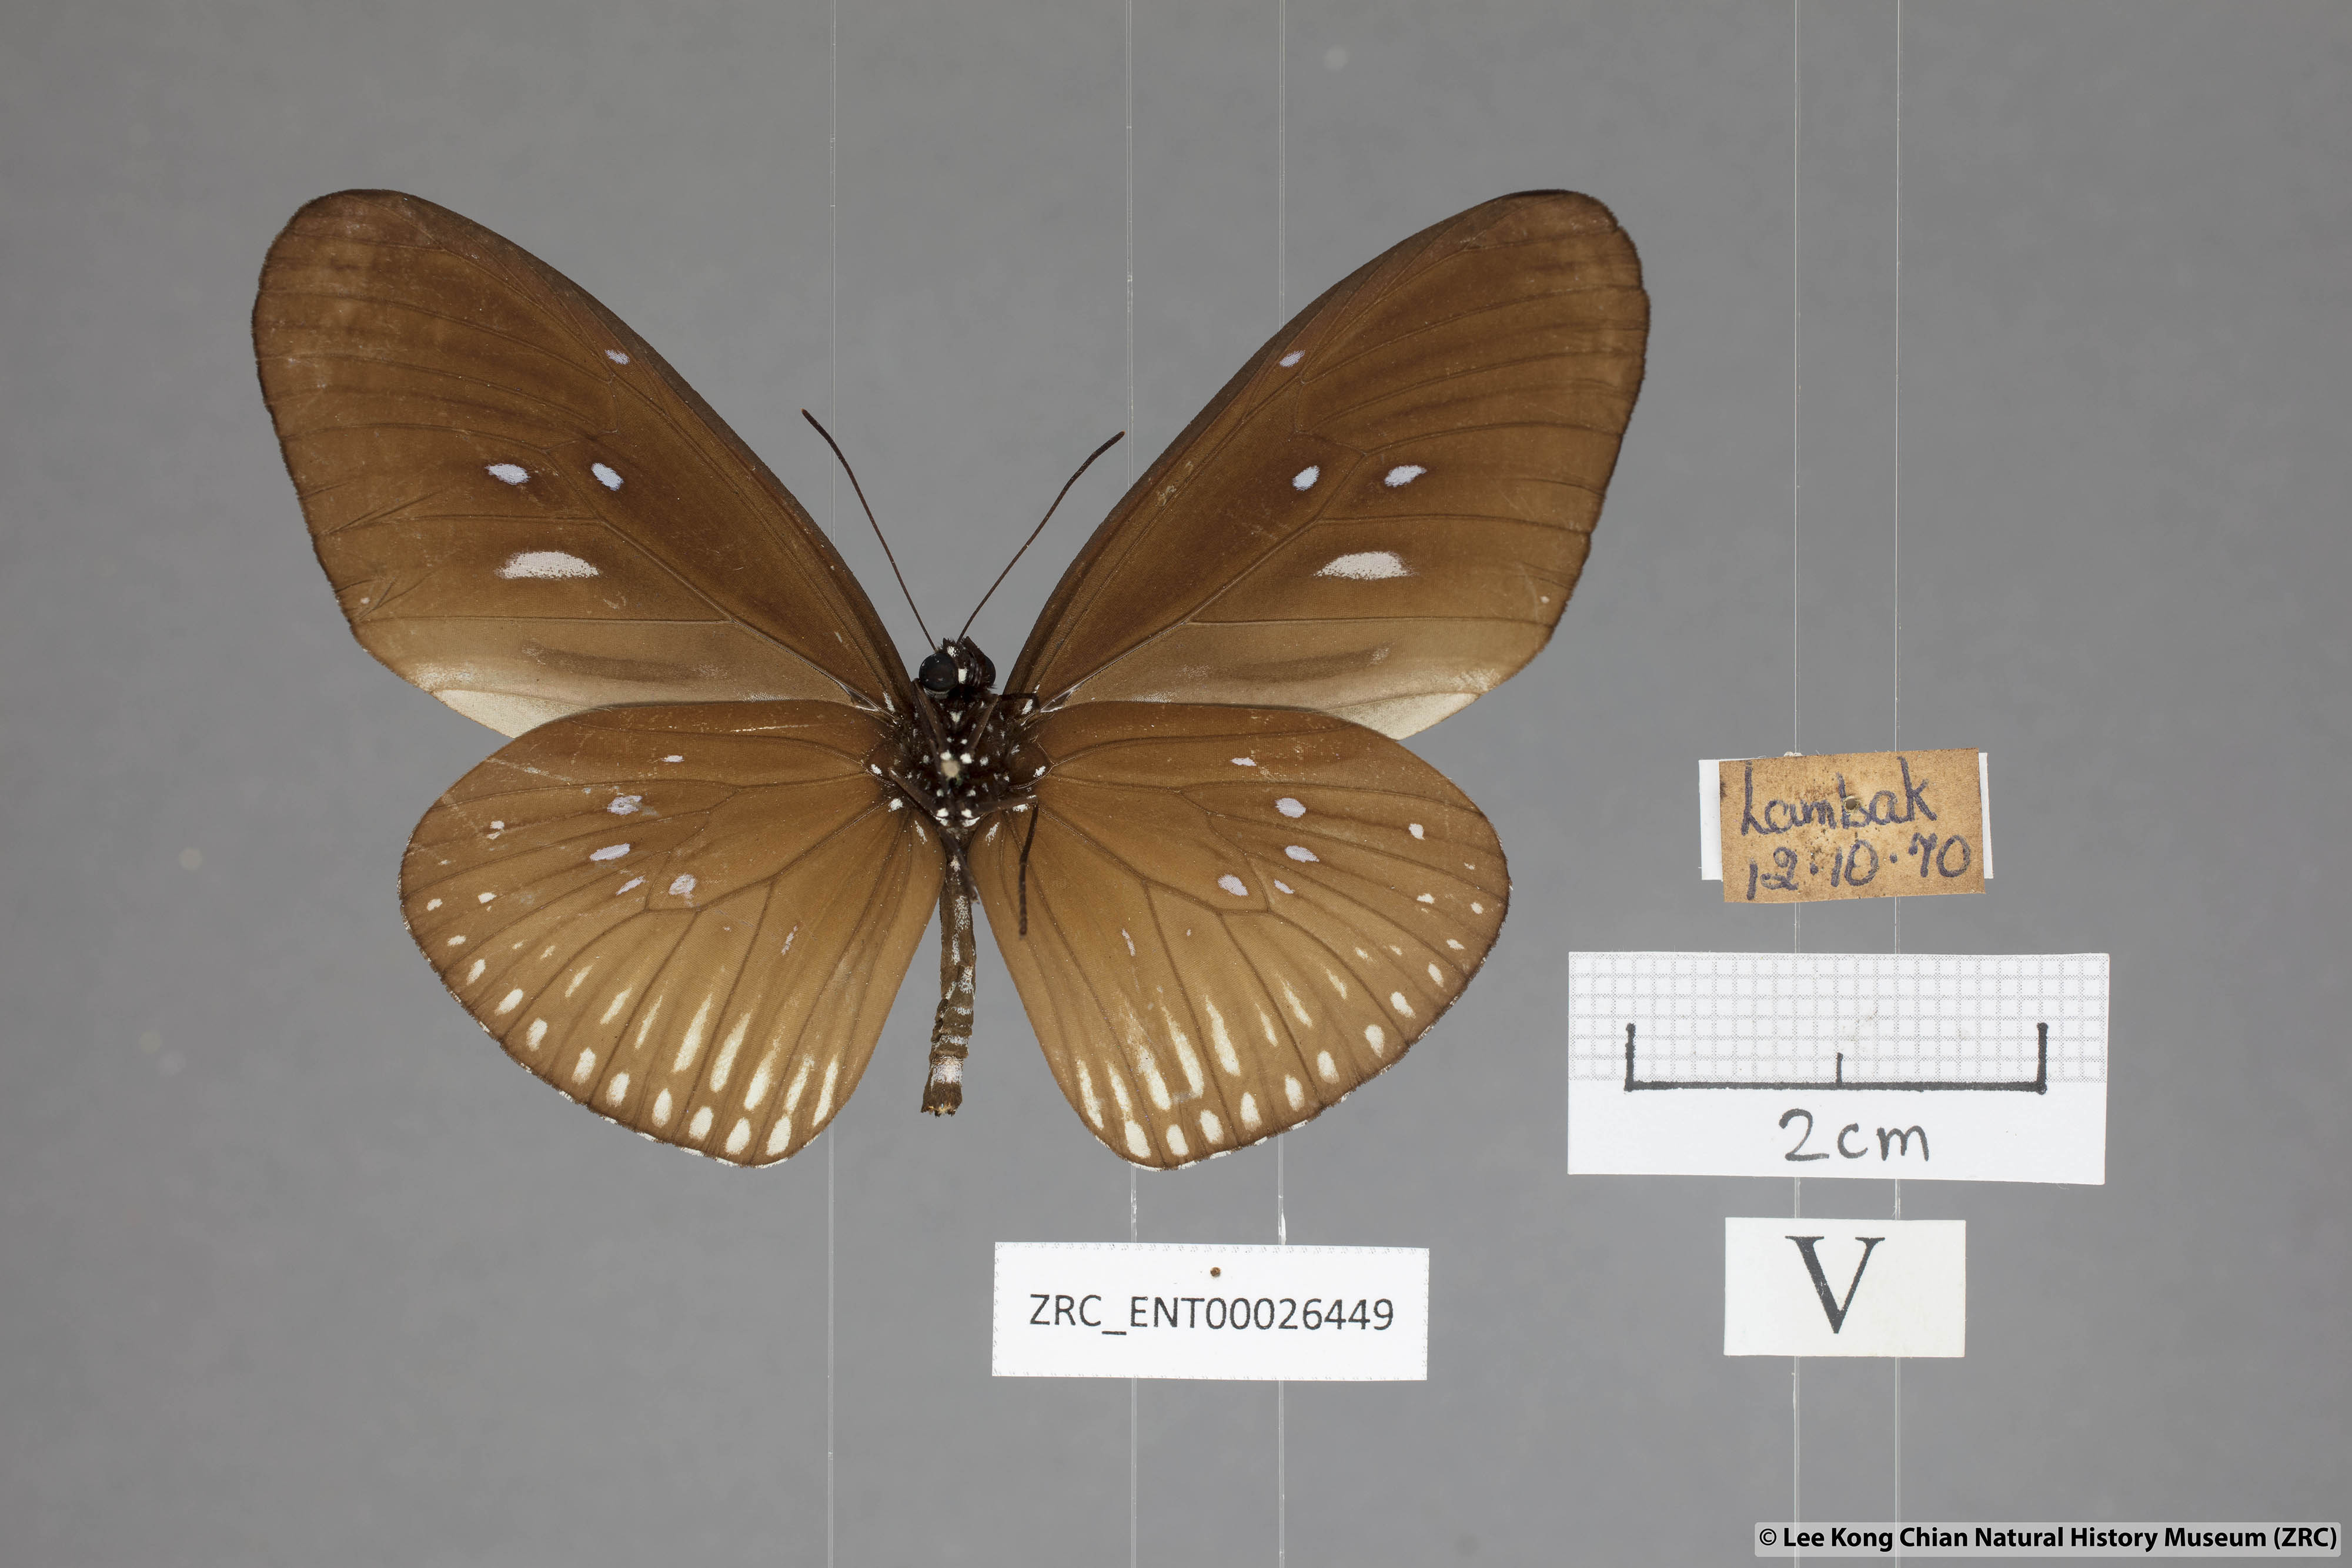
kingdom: Animalia
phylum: Arthropoda
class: Insecta
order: Lepidoptera
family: Nymphalidae
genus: Euploea
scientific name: Euploea eyndhovii
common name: Striped black crow butterfly
